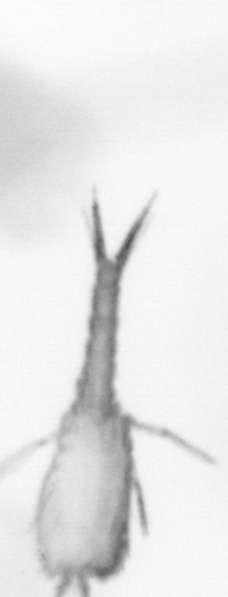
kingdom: Animalia
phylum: Arthropoda
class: Copepoda
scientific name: Copepoda
